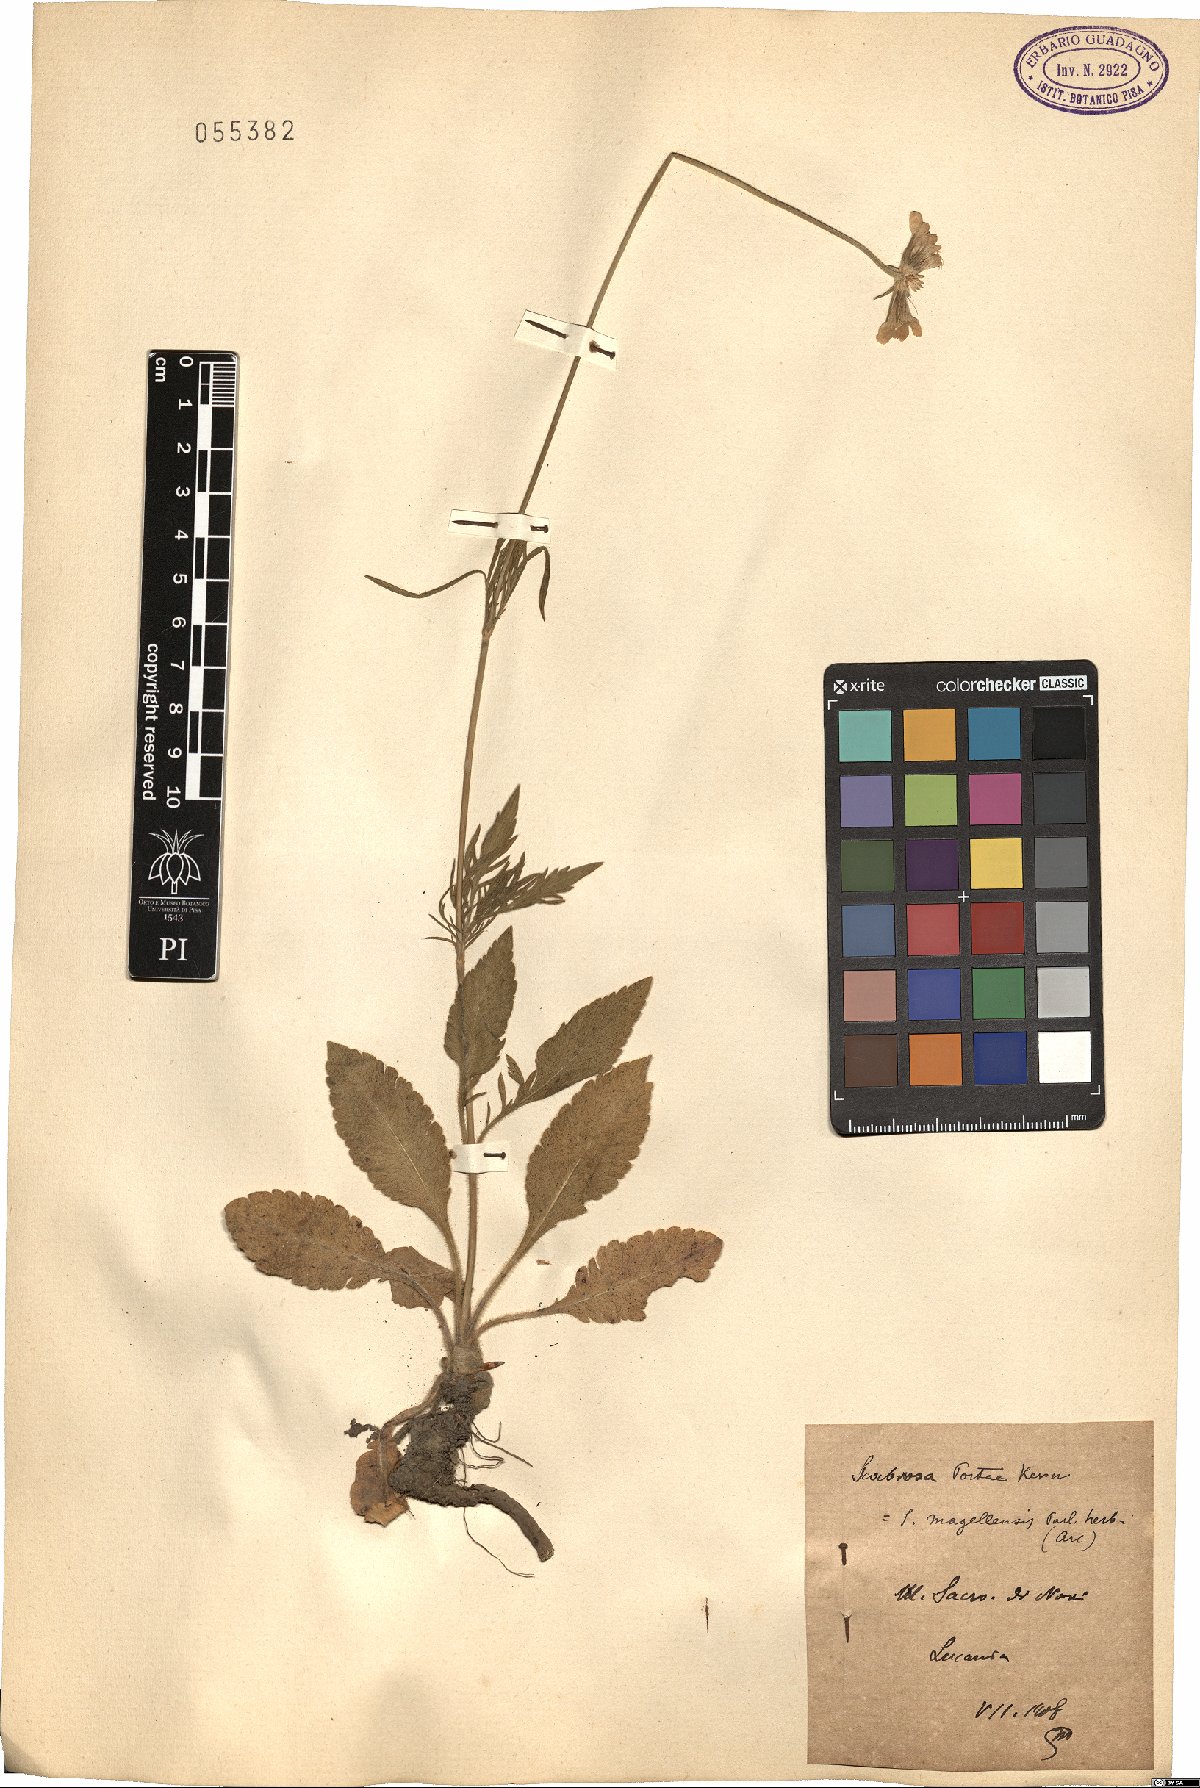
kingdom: Plantae
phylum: Tracheophyta
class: Magnoliopsida
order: Dipsacales
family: Caprifoliaceae
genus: Scabiosa
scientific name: Scabiosa taygetea
